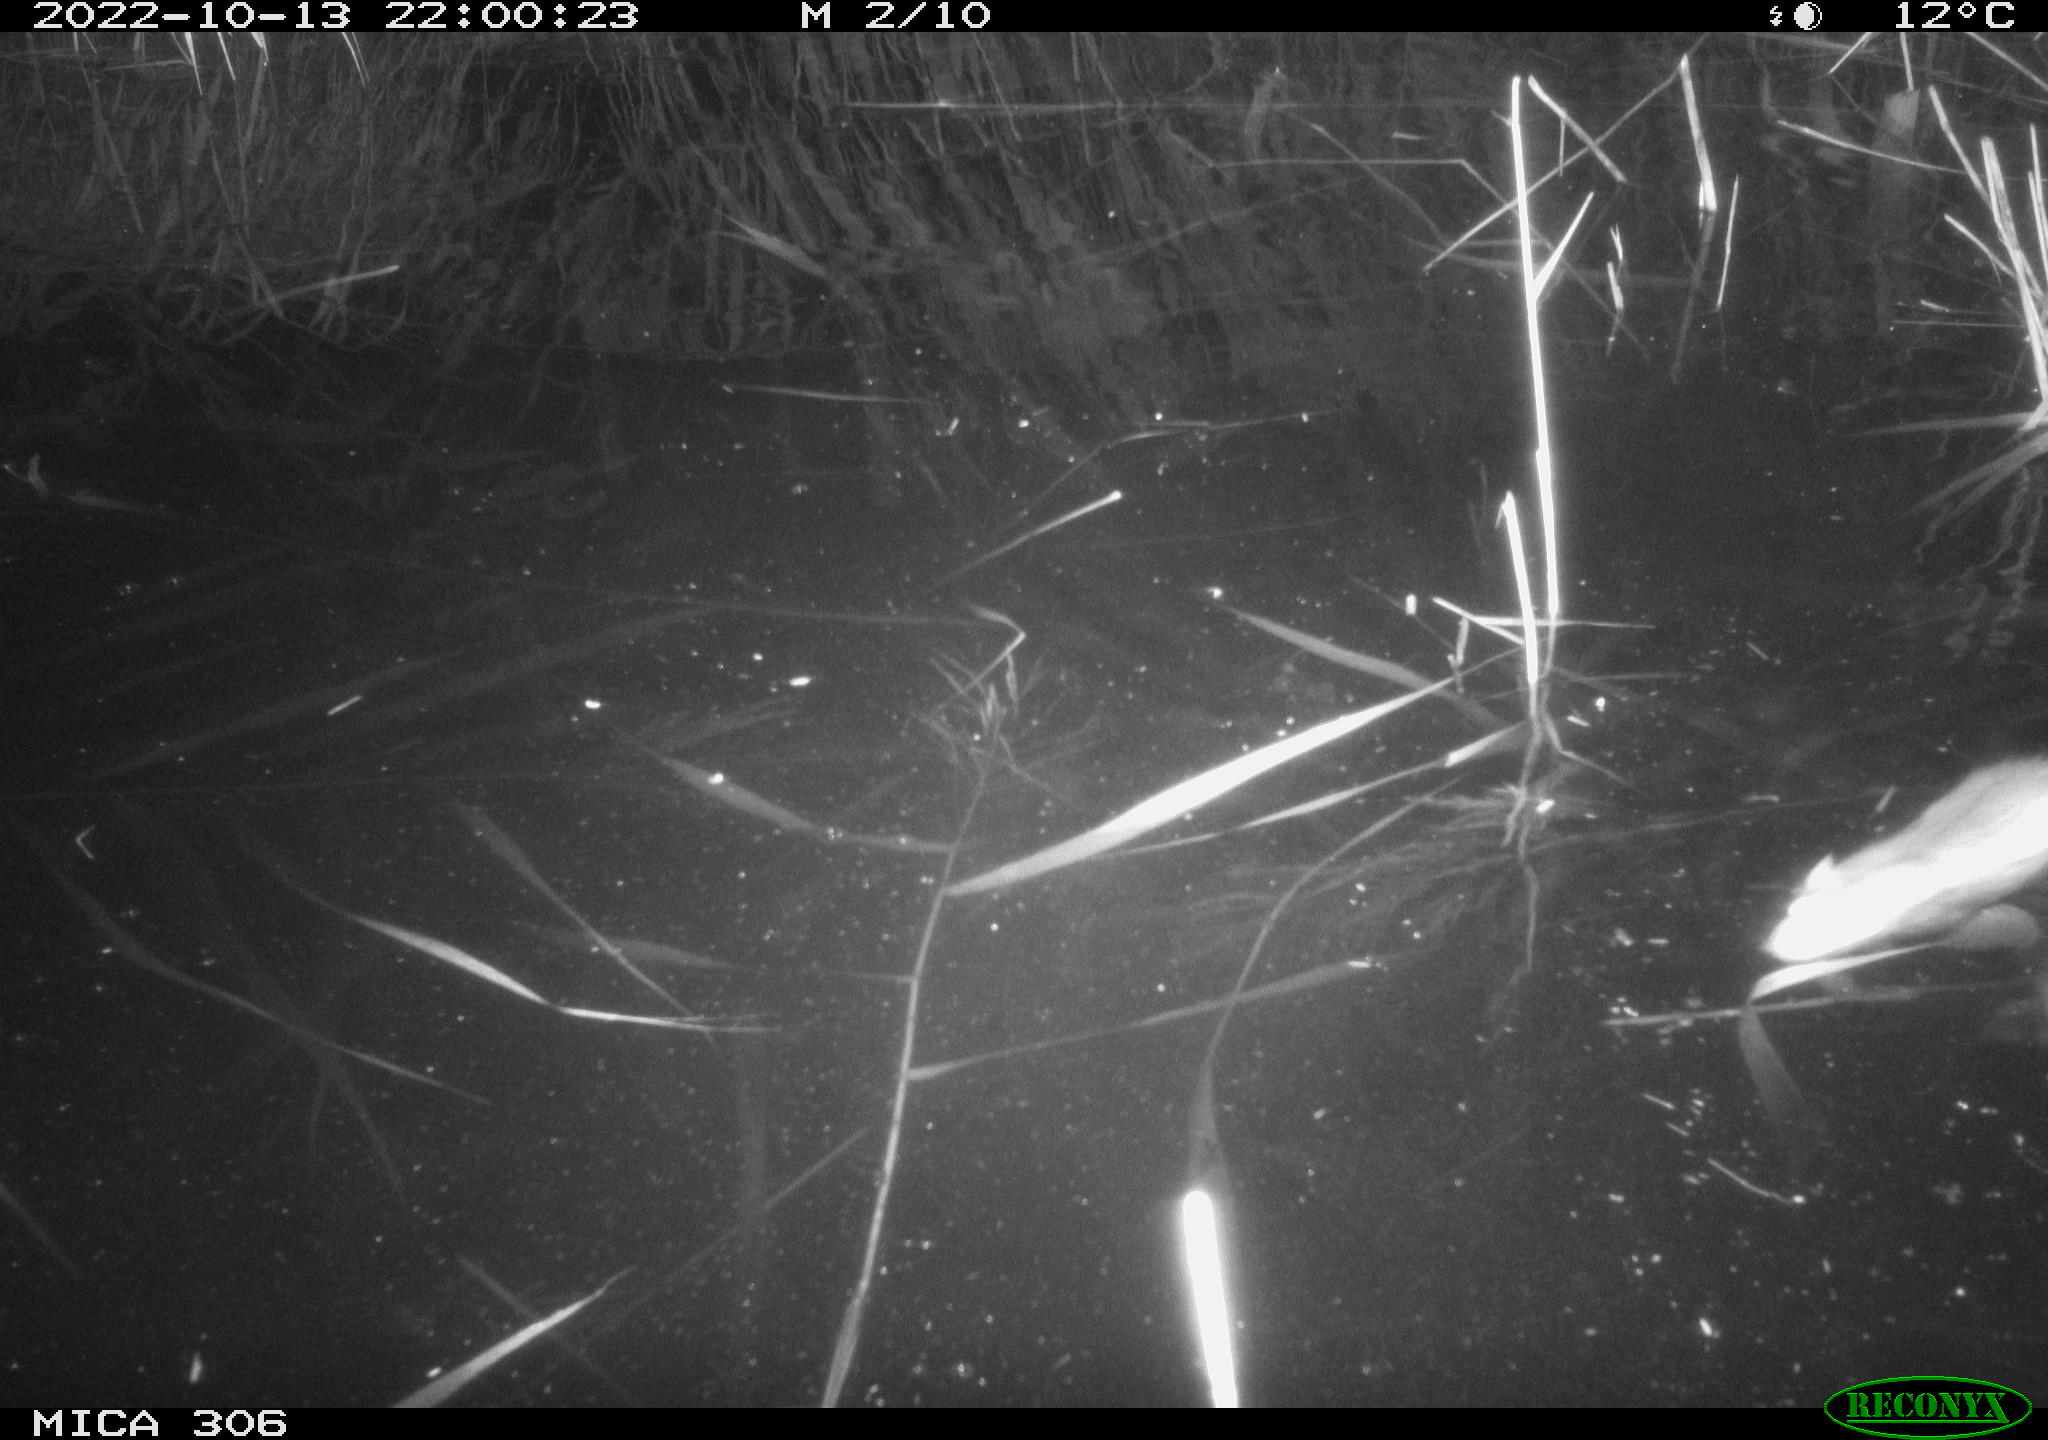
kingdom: Animalia
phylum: Chordata
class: Mammalia
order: Rodentia
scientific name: Rodentia
